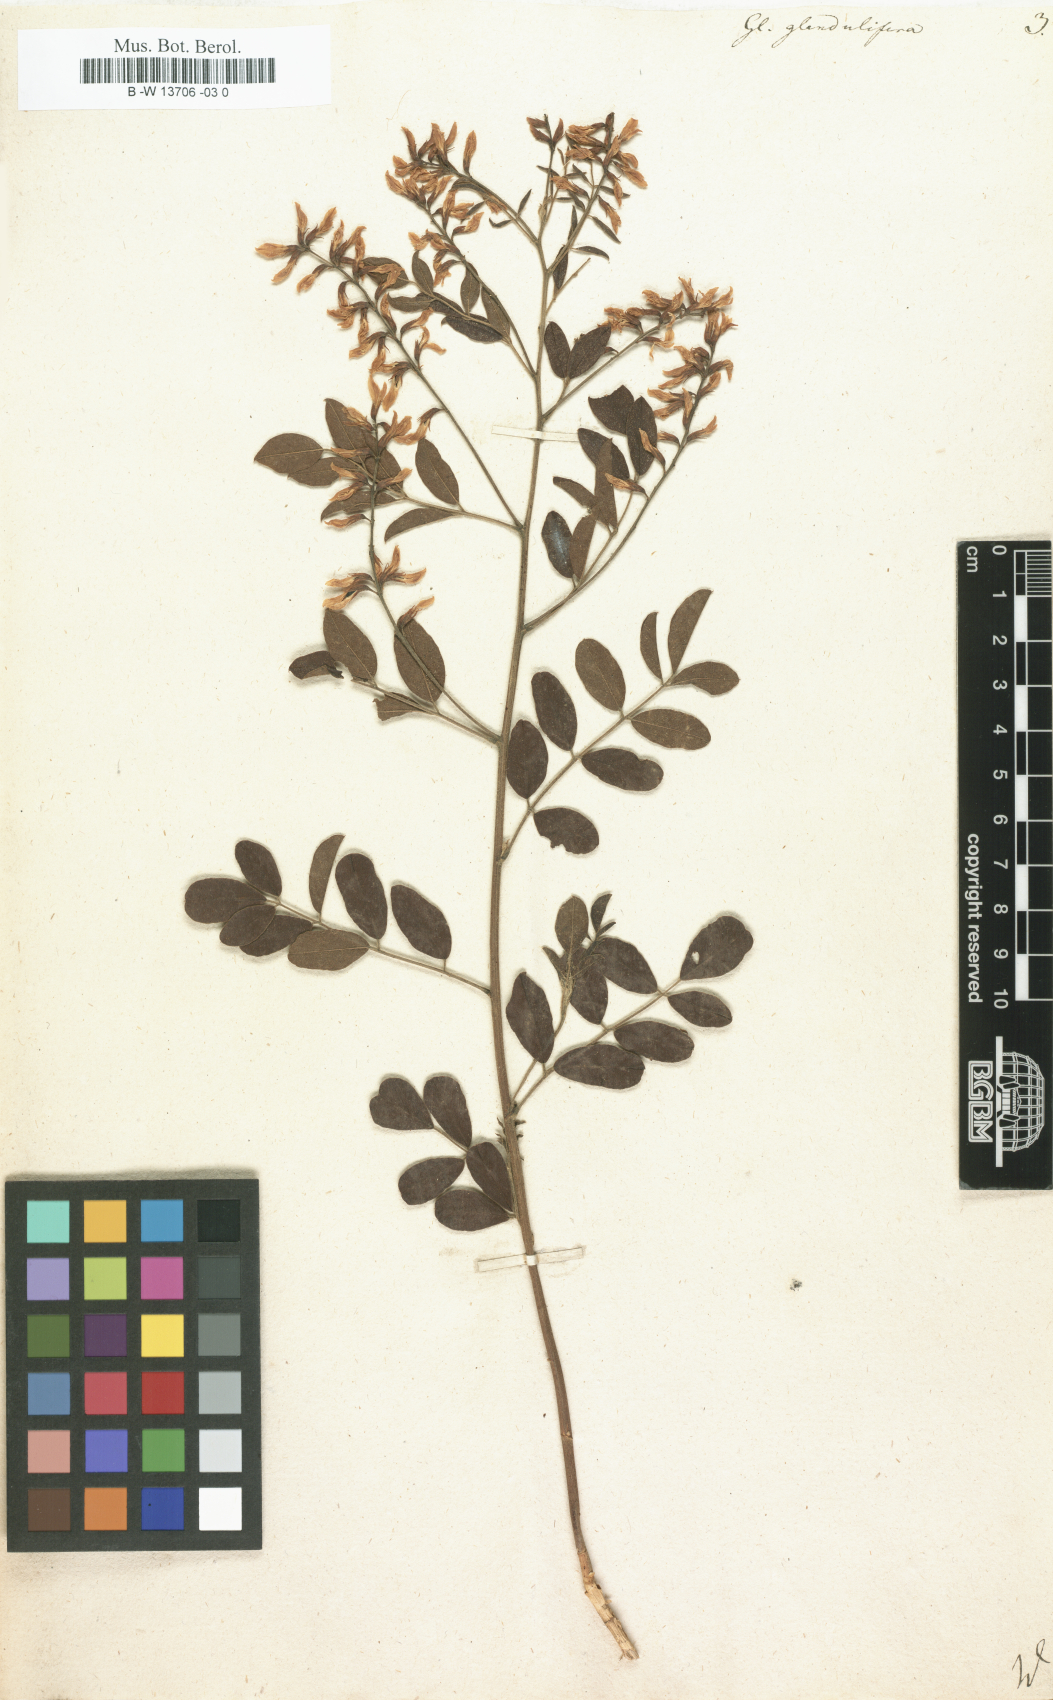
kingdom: Plantae
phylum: Tracheophyta
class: Magnoliopsida
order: Fabales
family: Fabaceae
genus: Glycyrrhiza
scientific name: Glycyrrhiza
